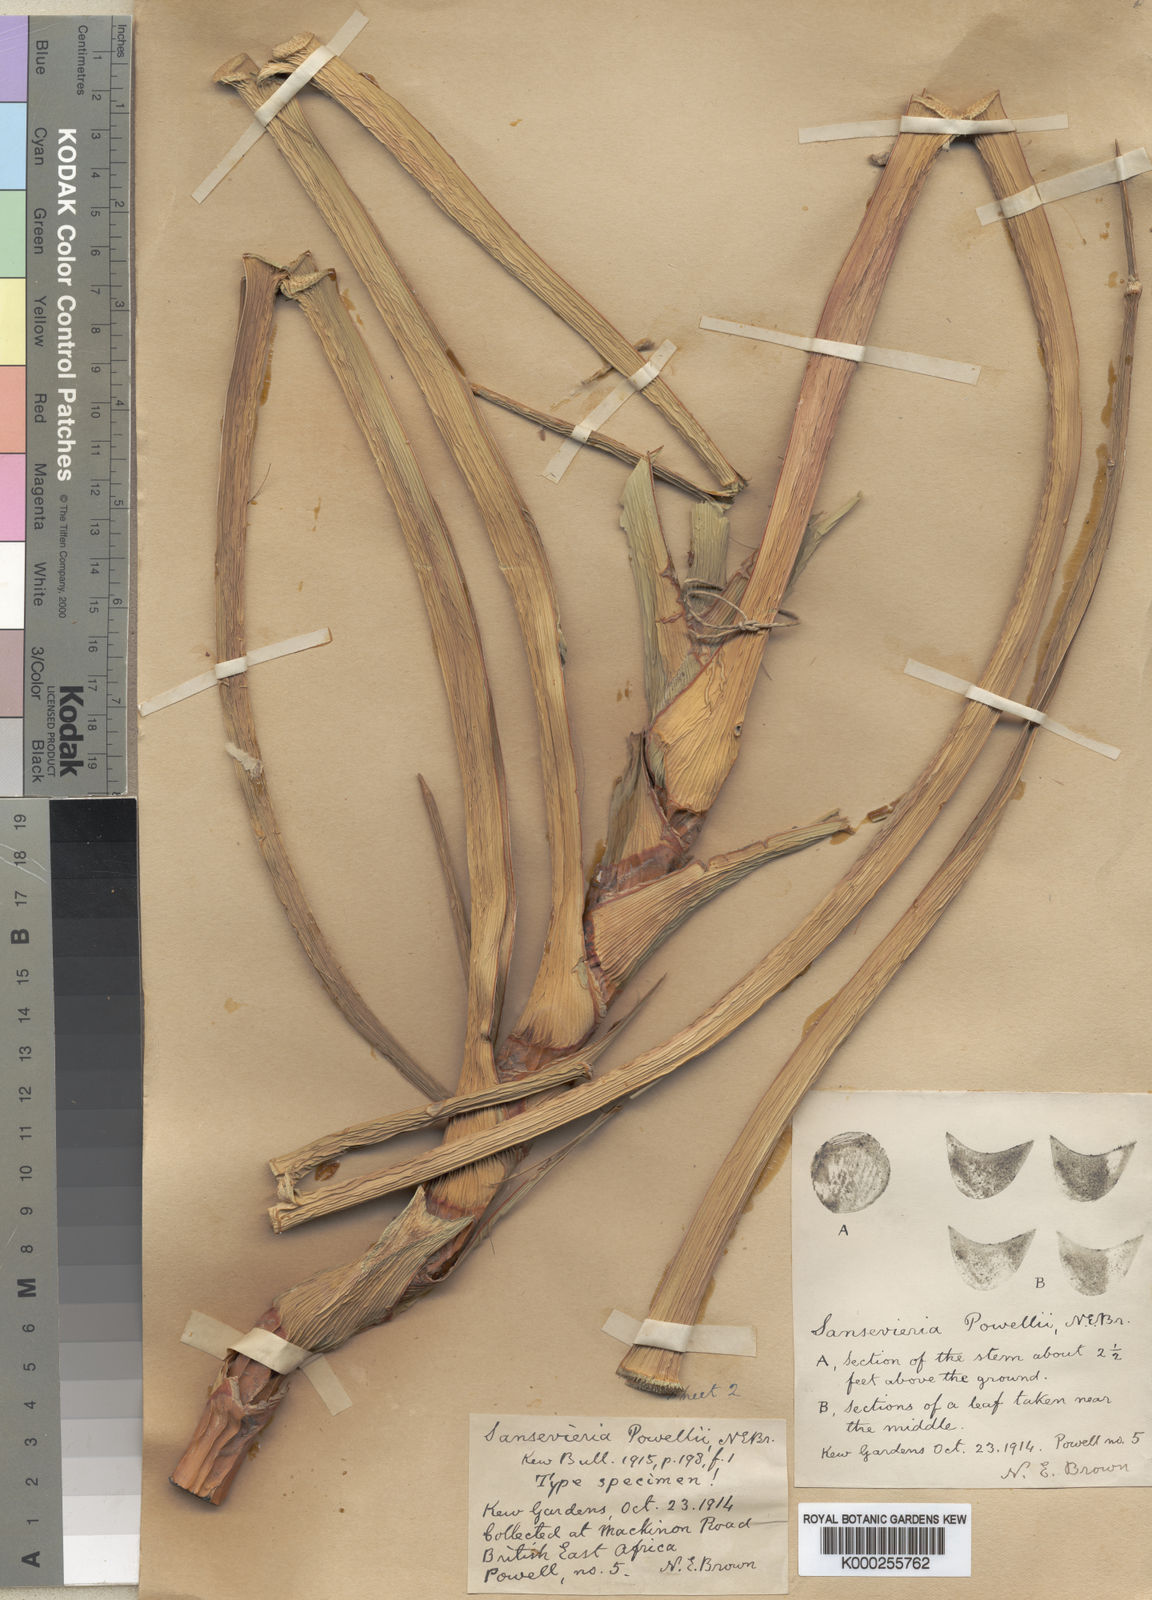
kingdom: Plantae
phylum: Tracheophyta
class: Liliopsida
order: Asparagales
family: Asparagaceae
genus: Dracaena
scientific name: Dracaena powellii
